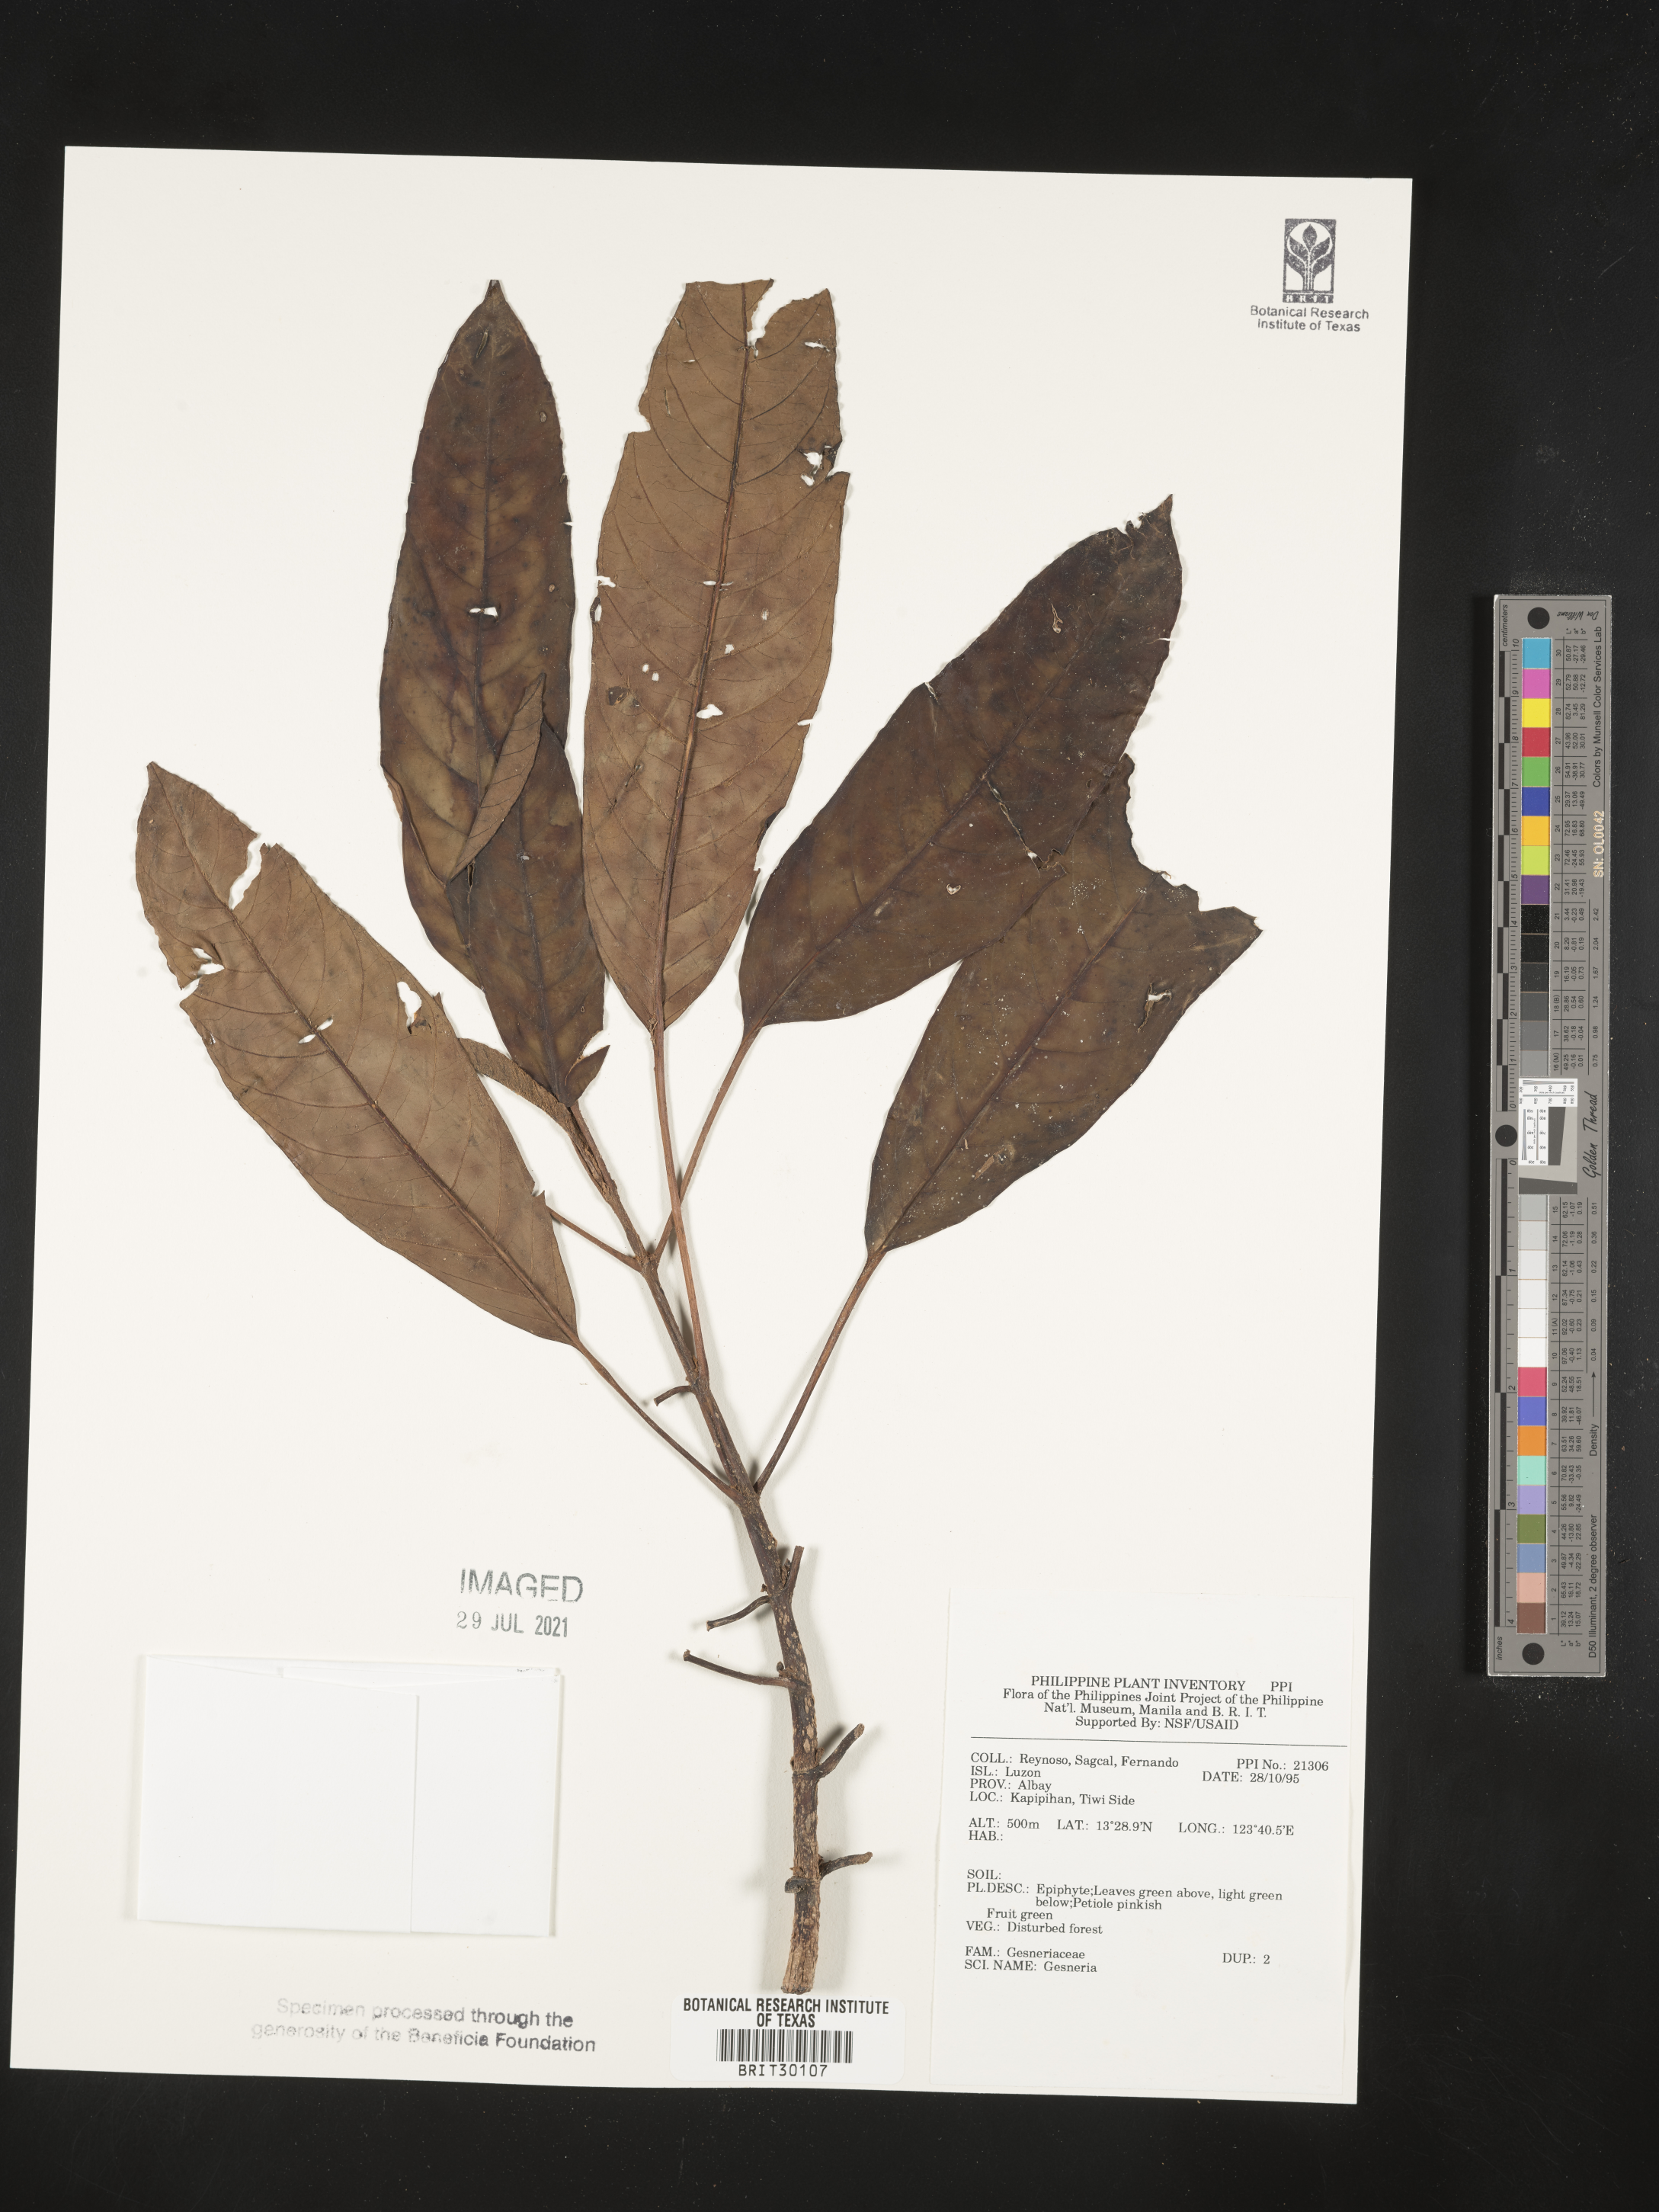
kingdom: Plantae
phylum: Tracheophyta
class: Magnoliopsida
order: Lamiales
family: Gesneriaceae
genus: Gesneria
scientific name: Gesneria
